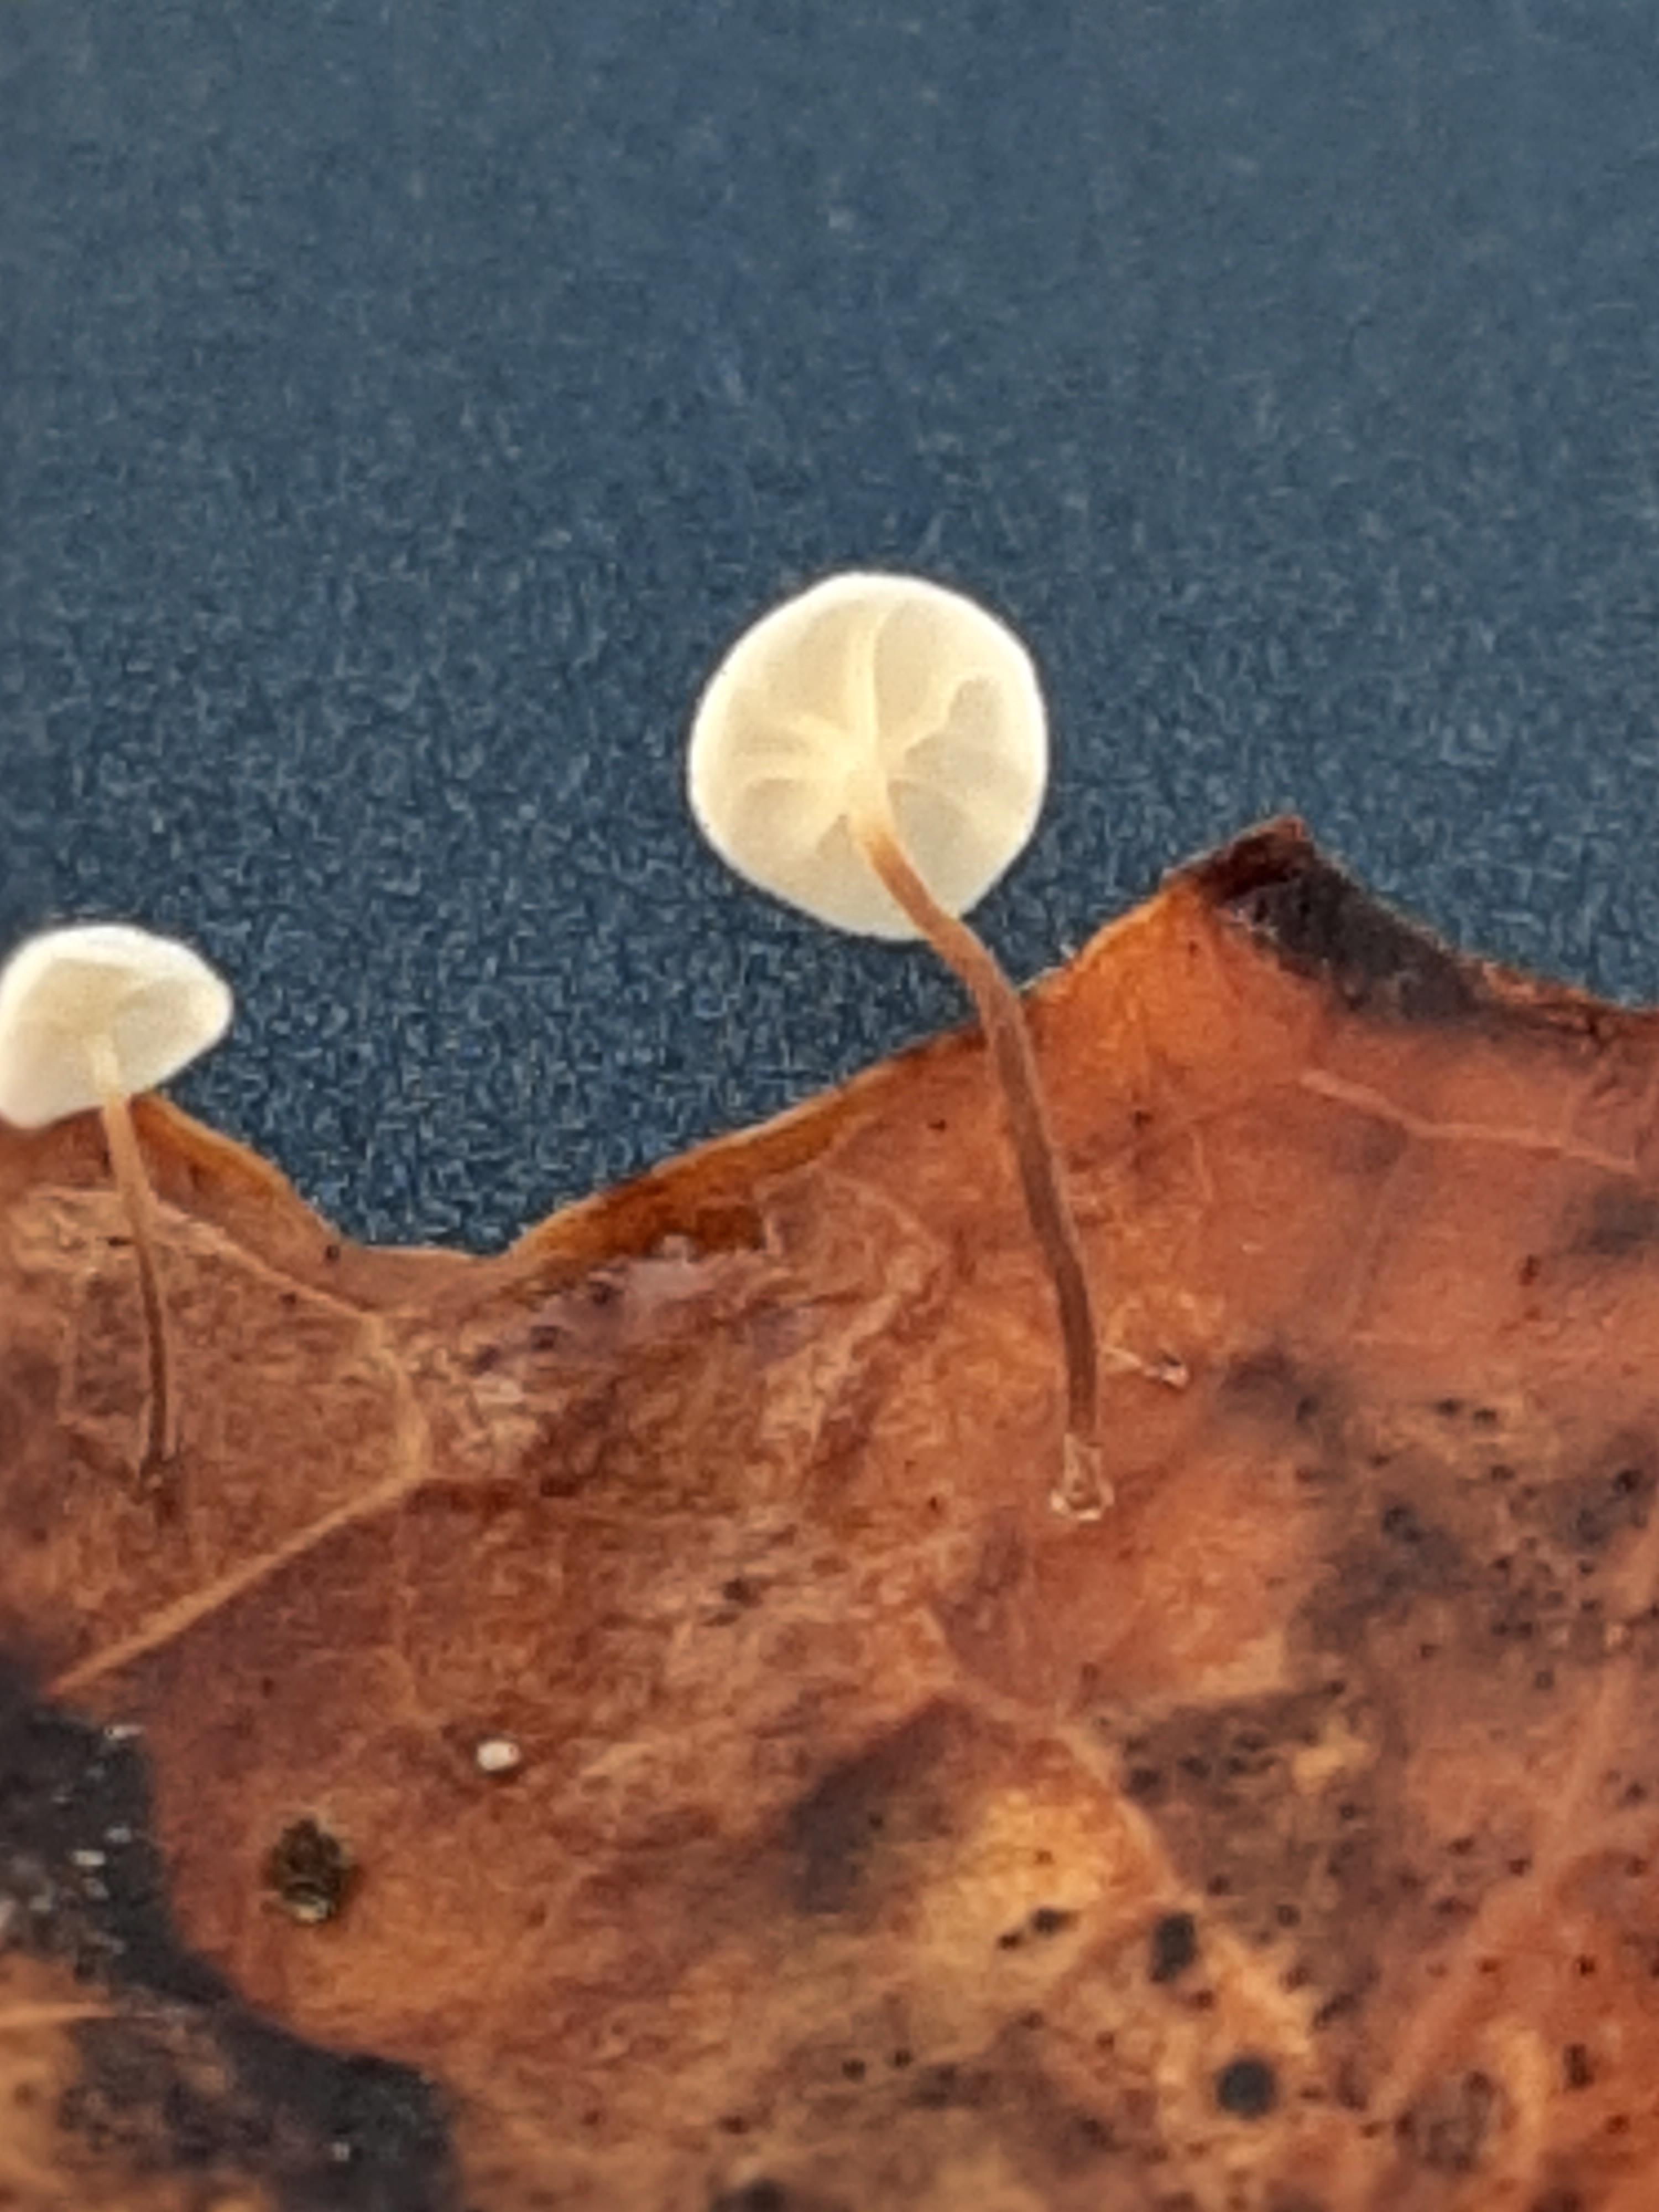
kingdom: Fungi
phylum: Basidiomycota
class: Agaricomycetes
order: Agaricales
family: Marasmiaceae
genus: Marasmius
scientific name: Marasmius epiphylloides
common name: vedbend-bruskhat
